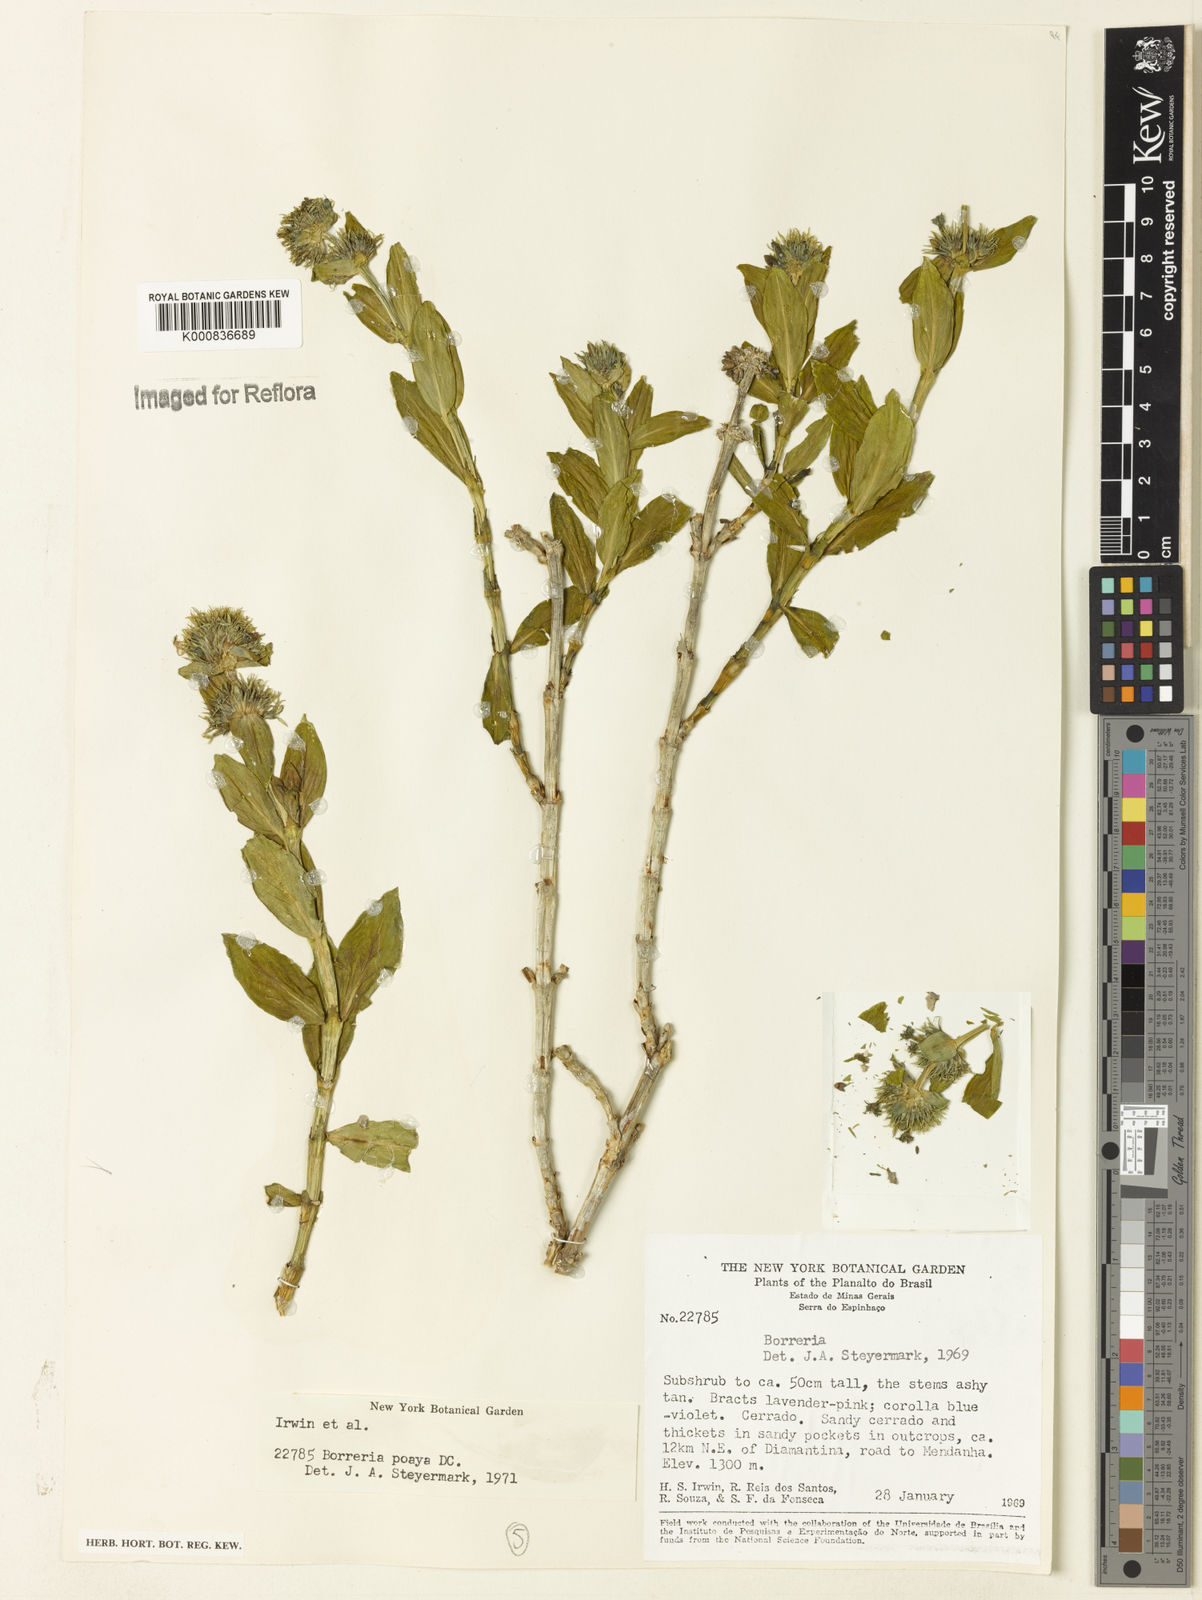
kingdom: Plantae
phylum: Tracheophyta
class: Magnoliopsida
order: Gentianales
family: Rubiaceae
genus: Spermacoce
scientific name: Spermacoce poaya
